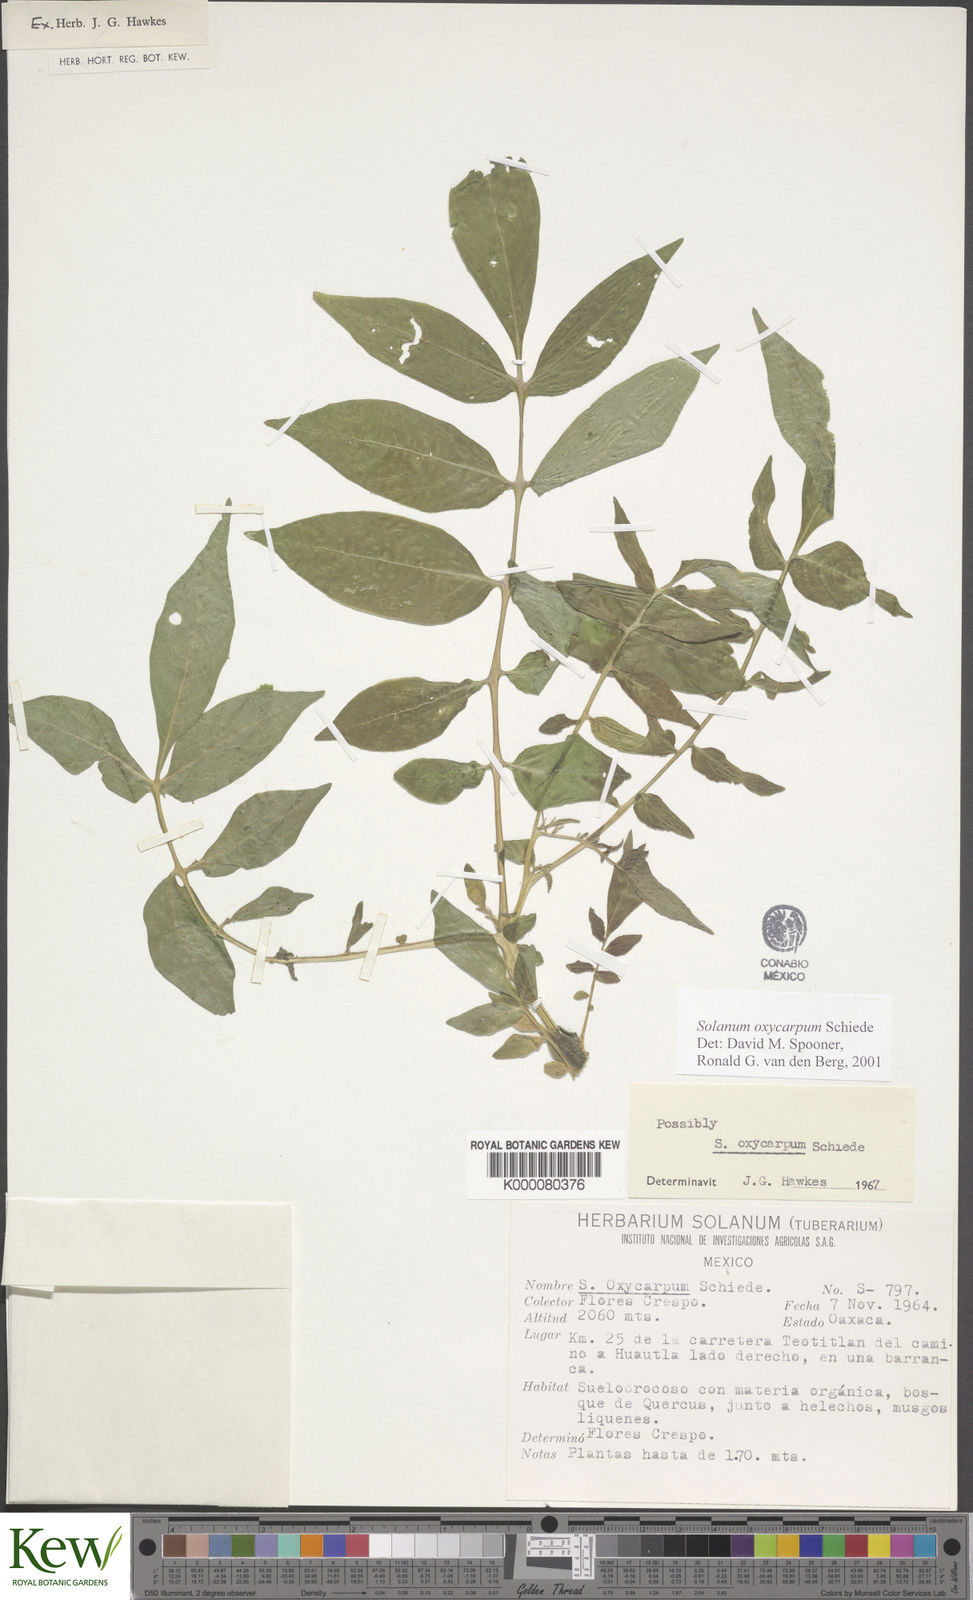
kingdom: Plantae
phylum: Tracheophyta
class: Magnoliopsida
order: Solanales
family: Solanaceae
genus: Solanum
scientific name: Solanum oxycarpum
